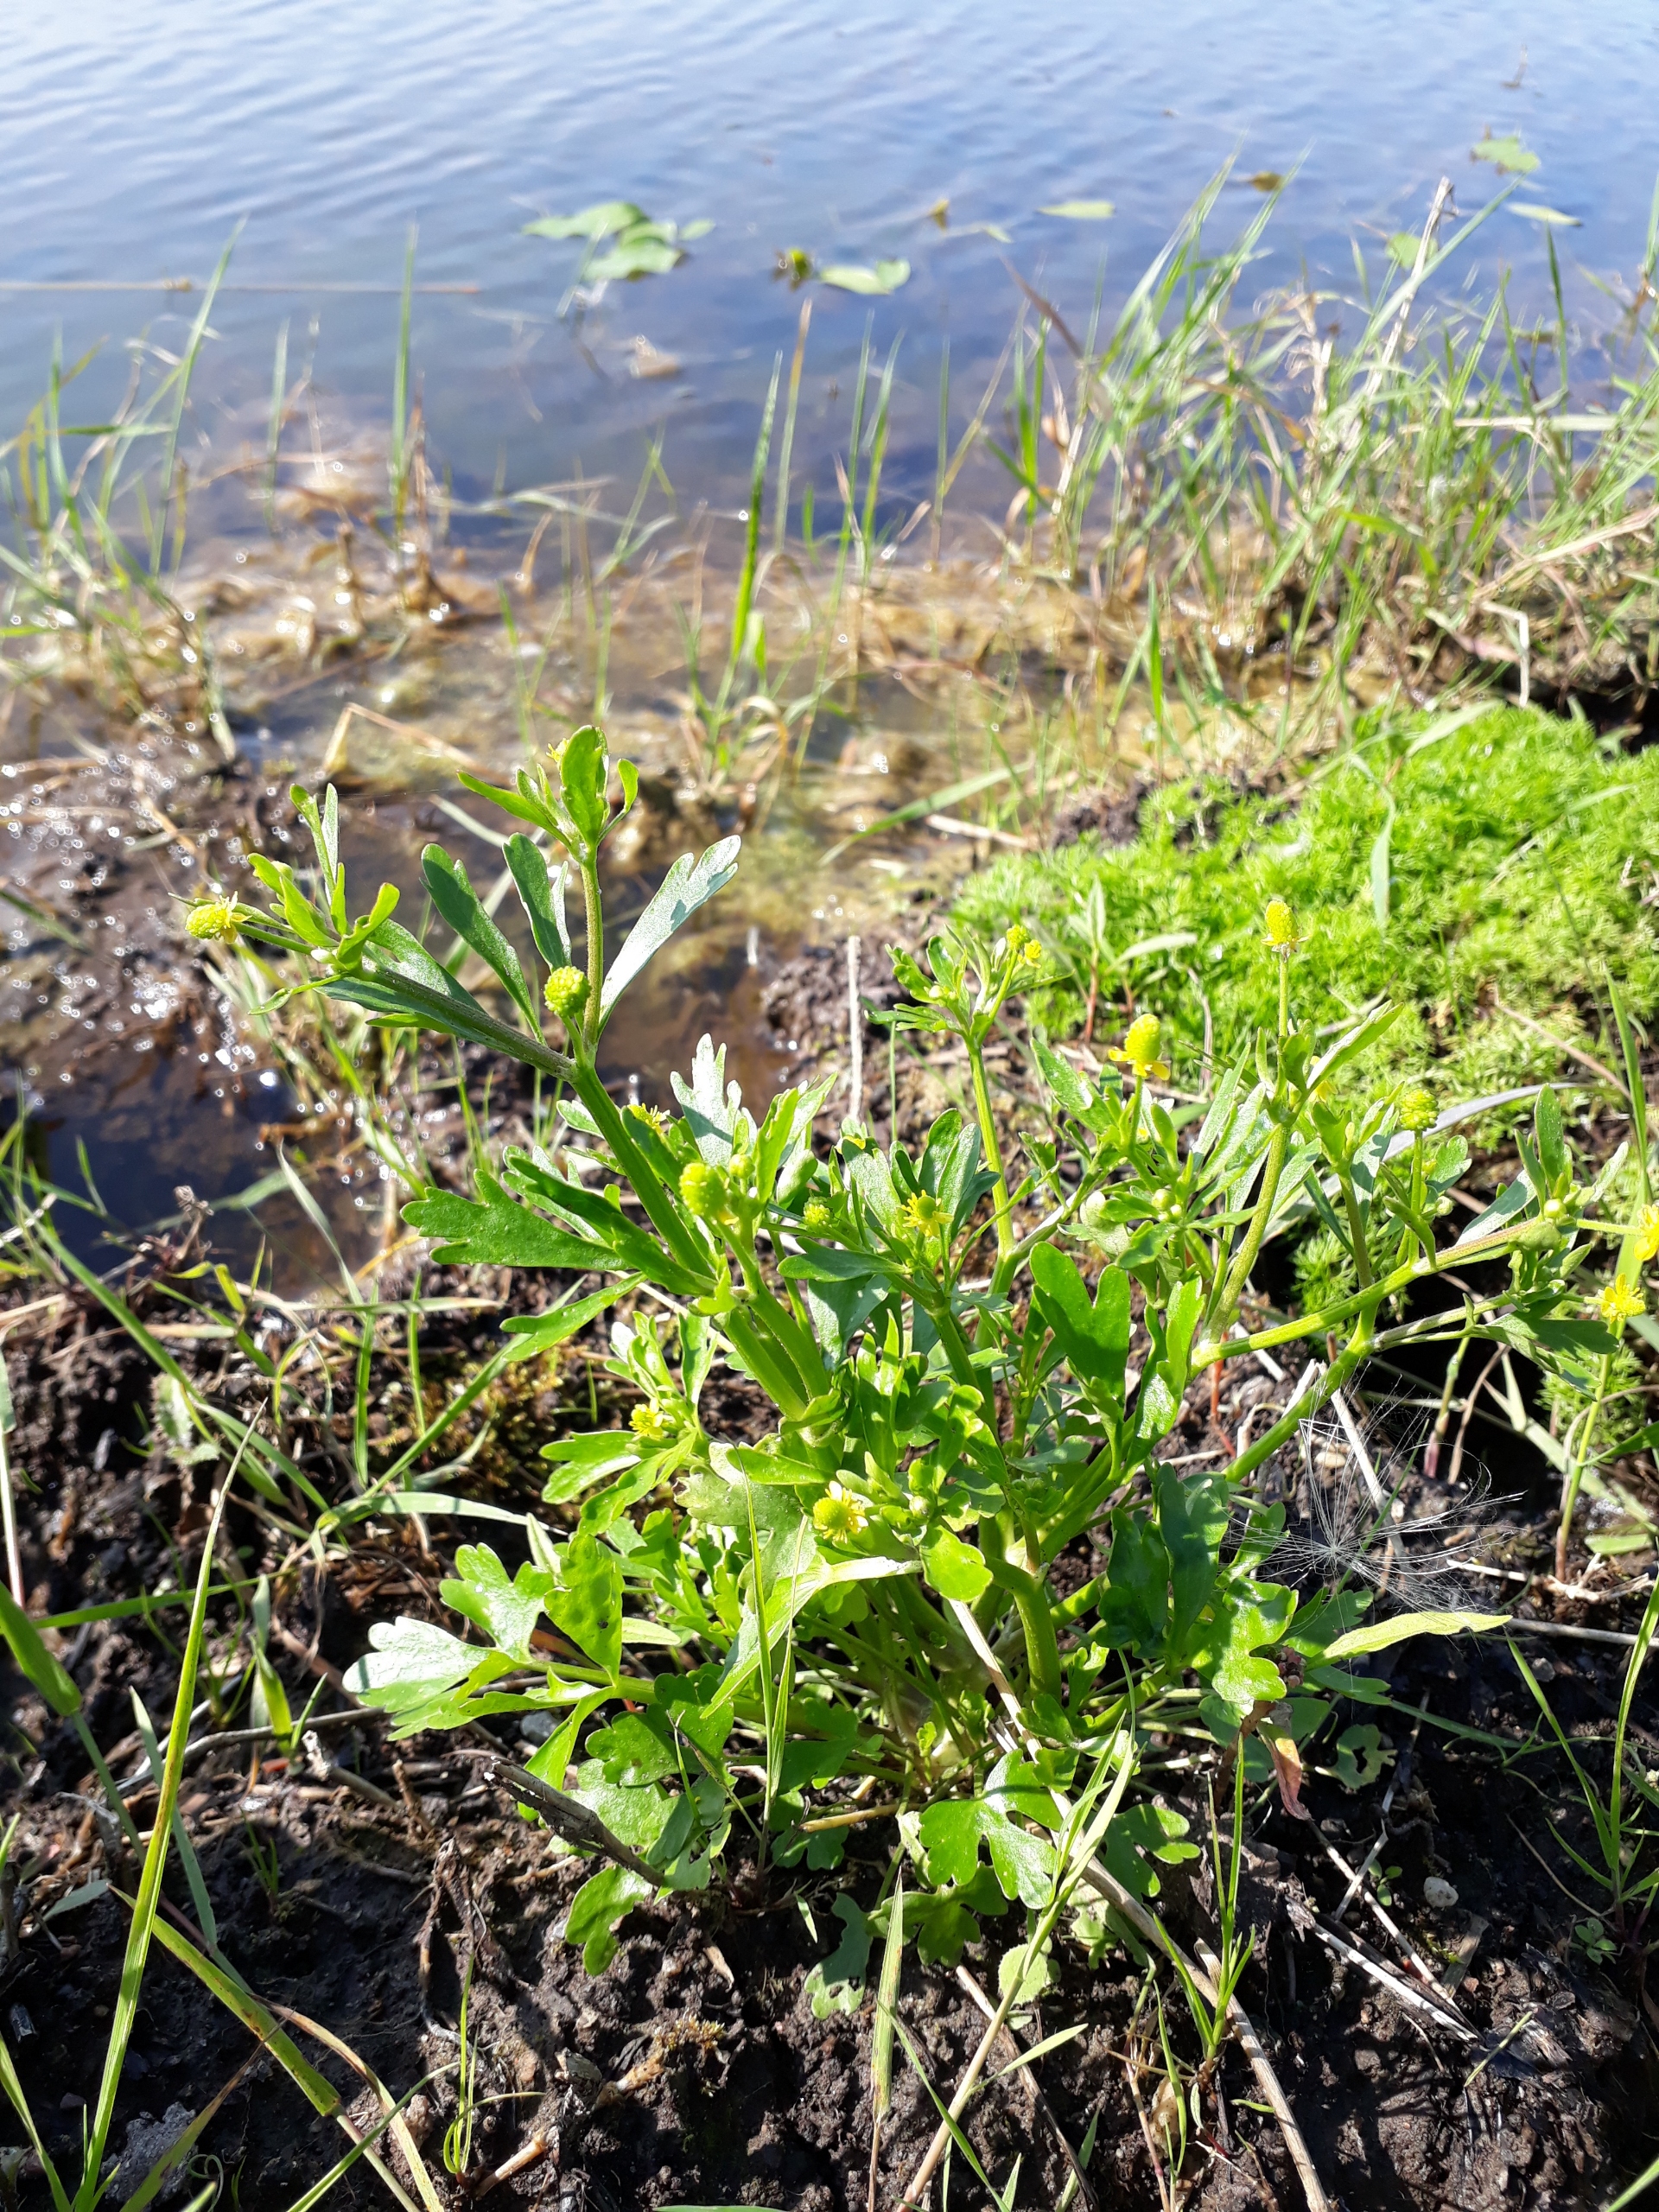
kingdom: Plantae
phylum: Tracheophyta
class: Magnoliopsida
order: Ranunculales
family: Ranunculaceae
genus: Ranunculus
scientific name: Ranunculus sceleratus
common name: Tigger-ranunkel
